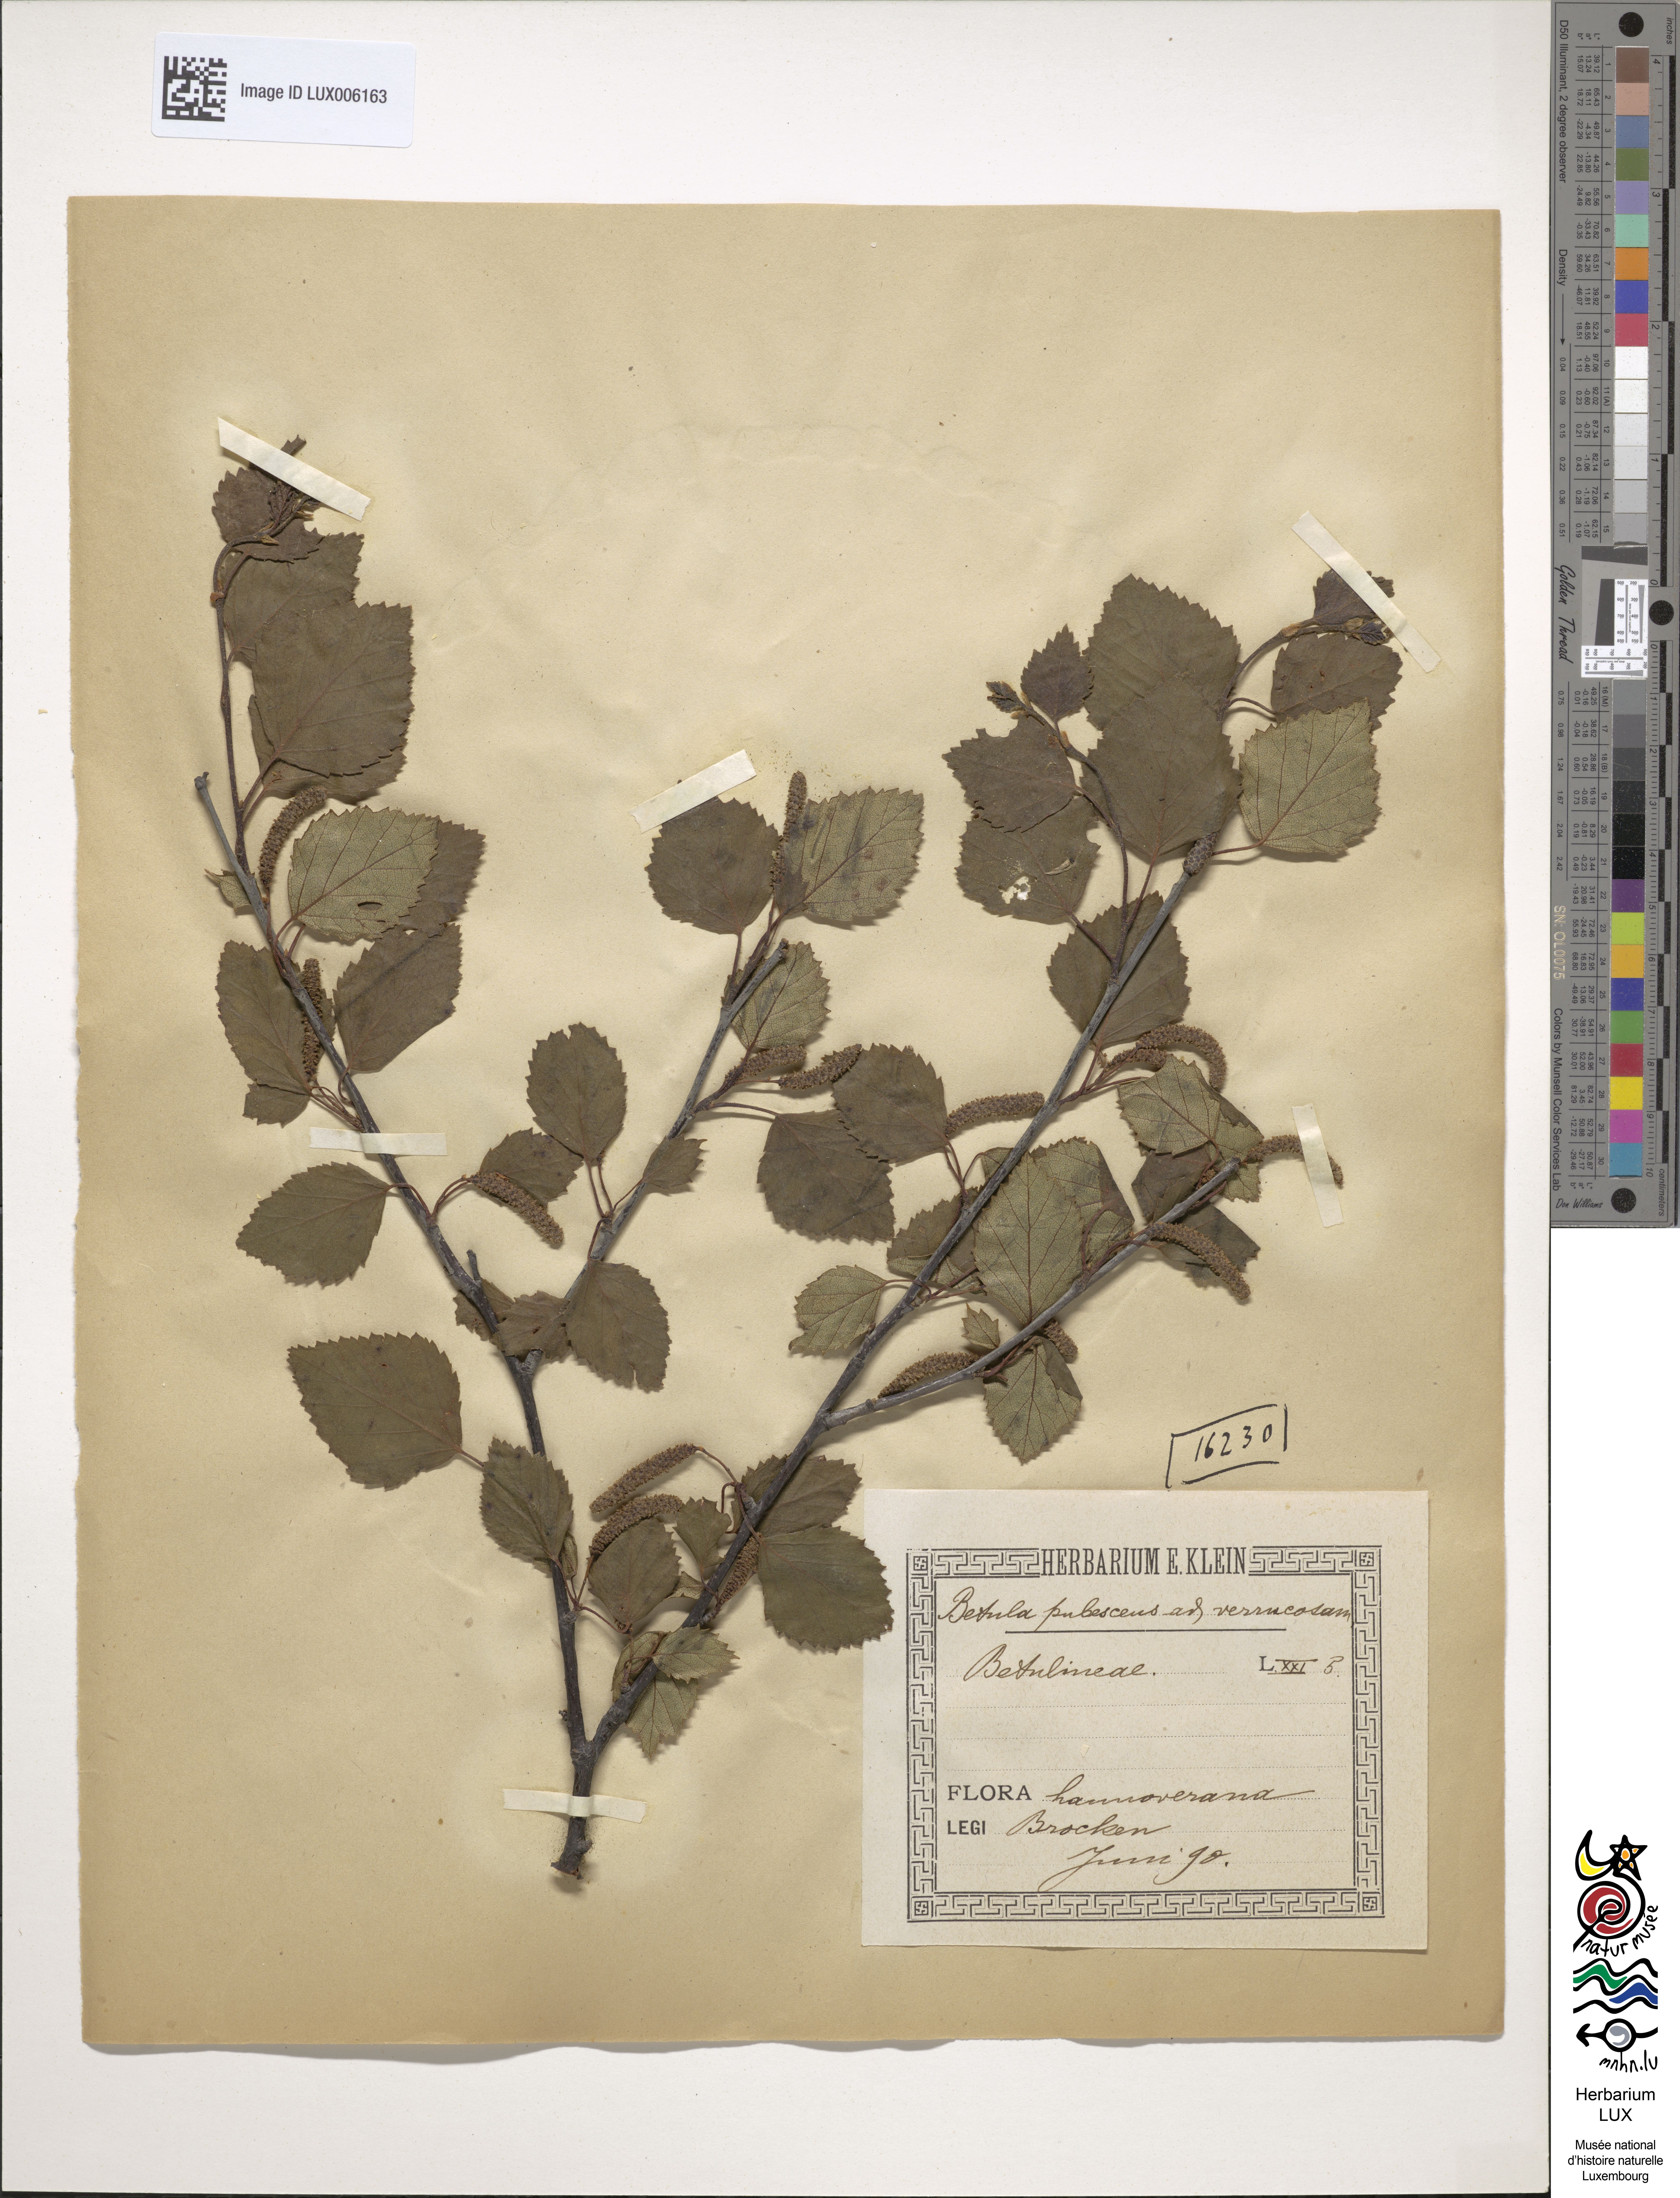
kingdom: Plantae
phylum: Tracheophyta
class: Magnoliopsida
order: Fagales
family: Betulaceae
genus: Betula
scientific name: Betula pubescens
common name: Downy birch
